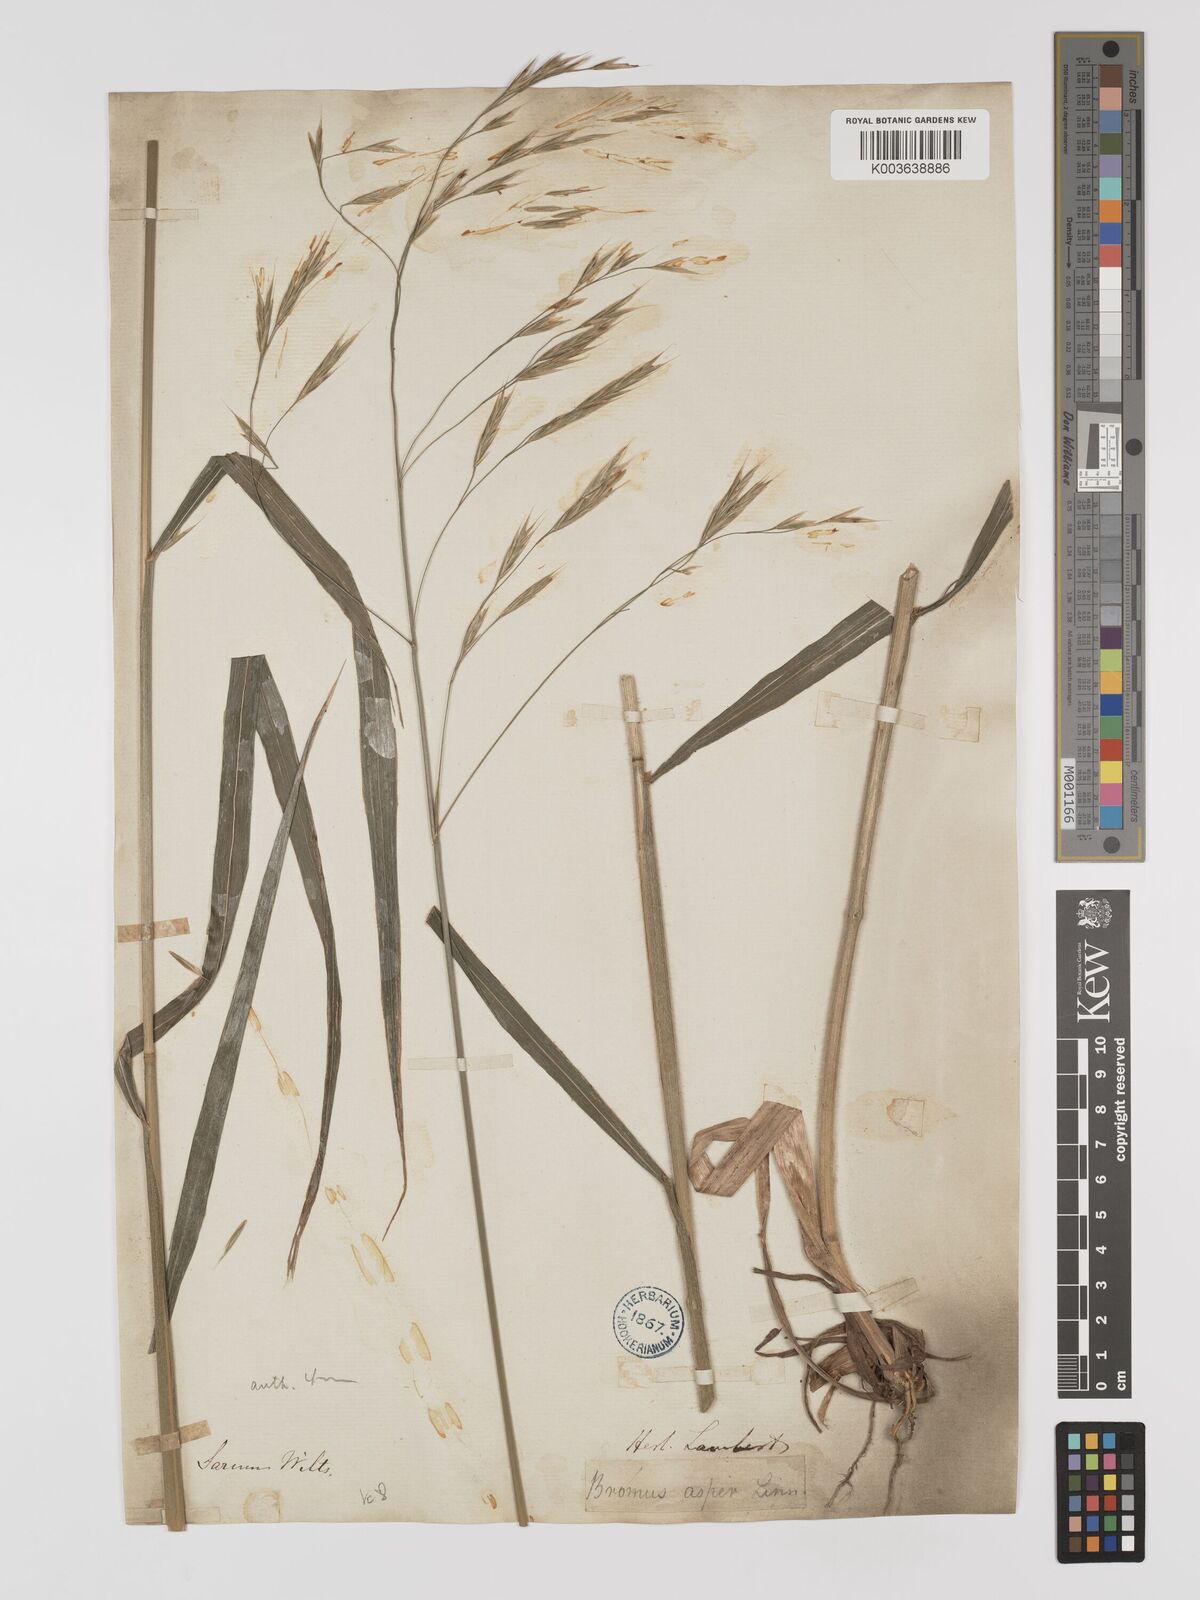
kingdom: Plantae
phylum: Tracheophyta
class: Liliopsida
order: Poales
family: Poaceae
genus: Brachypodium
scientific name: Brachypodium retusum
